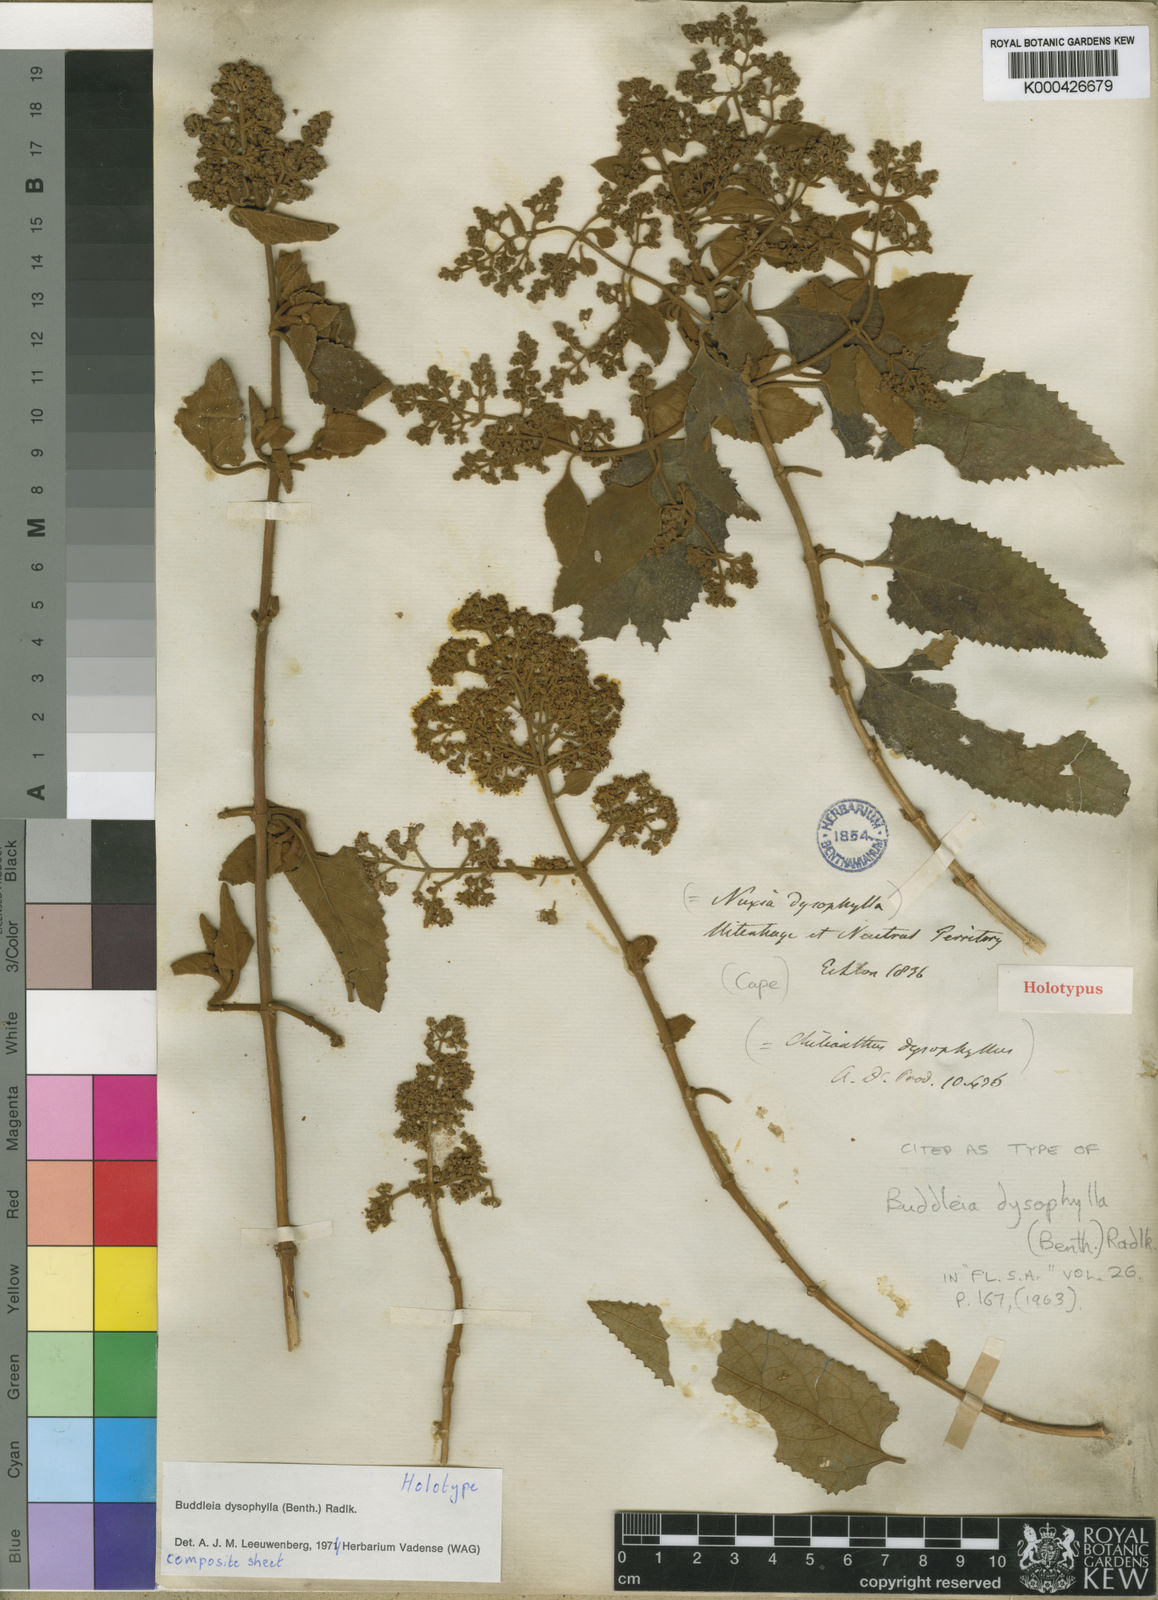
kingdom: Plantae
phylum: Tracheophyta
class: Magnoliopsida
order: Lamiales
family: Scrophulariaceae
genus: Buddleja
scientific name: Buddleja dysophylla
